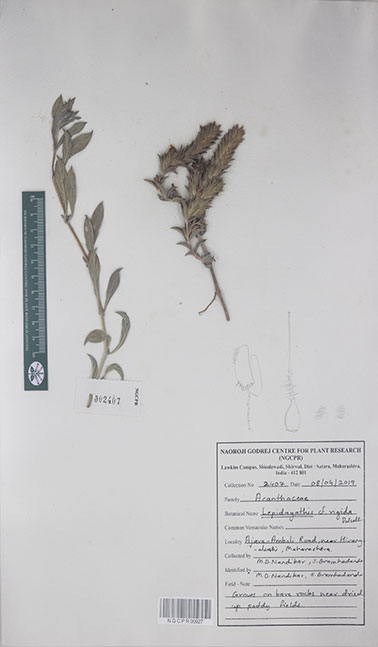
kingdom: Plantae
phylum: Tracheophyta
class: Magnoliopsida
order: Lamiales
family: Acanthaceae
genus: Lepidagathis
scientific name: Lepidagathis rigida
